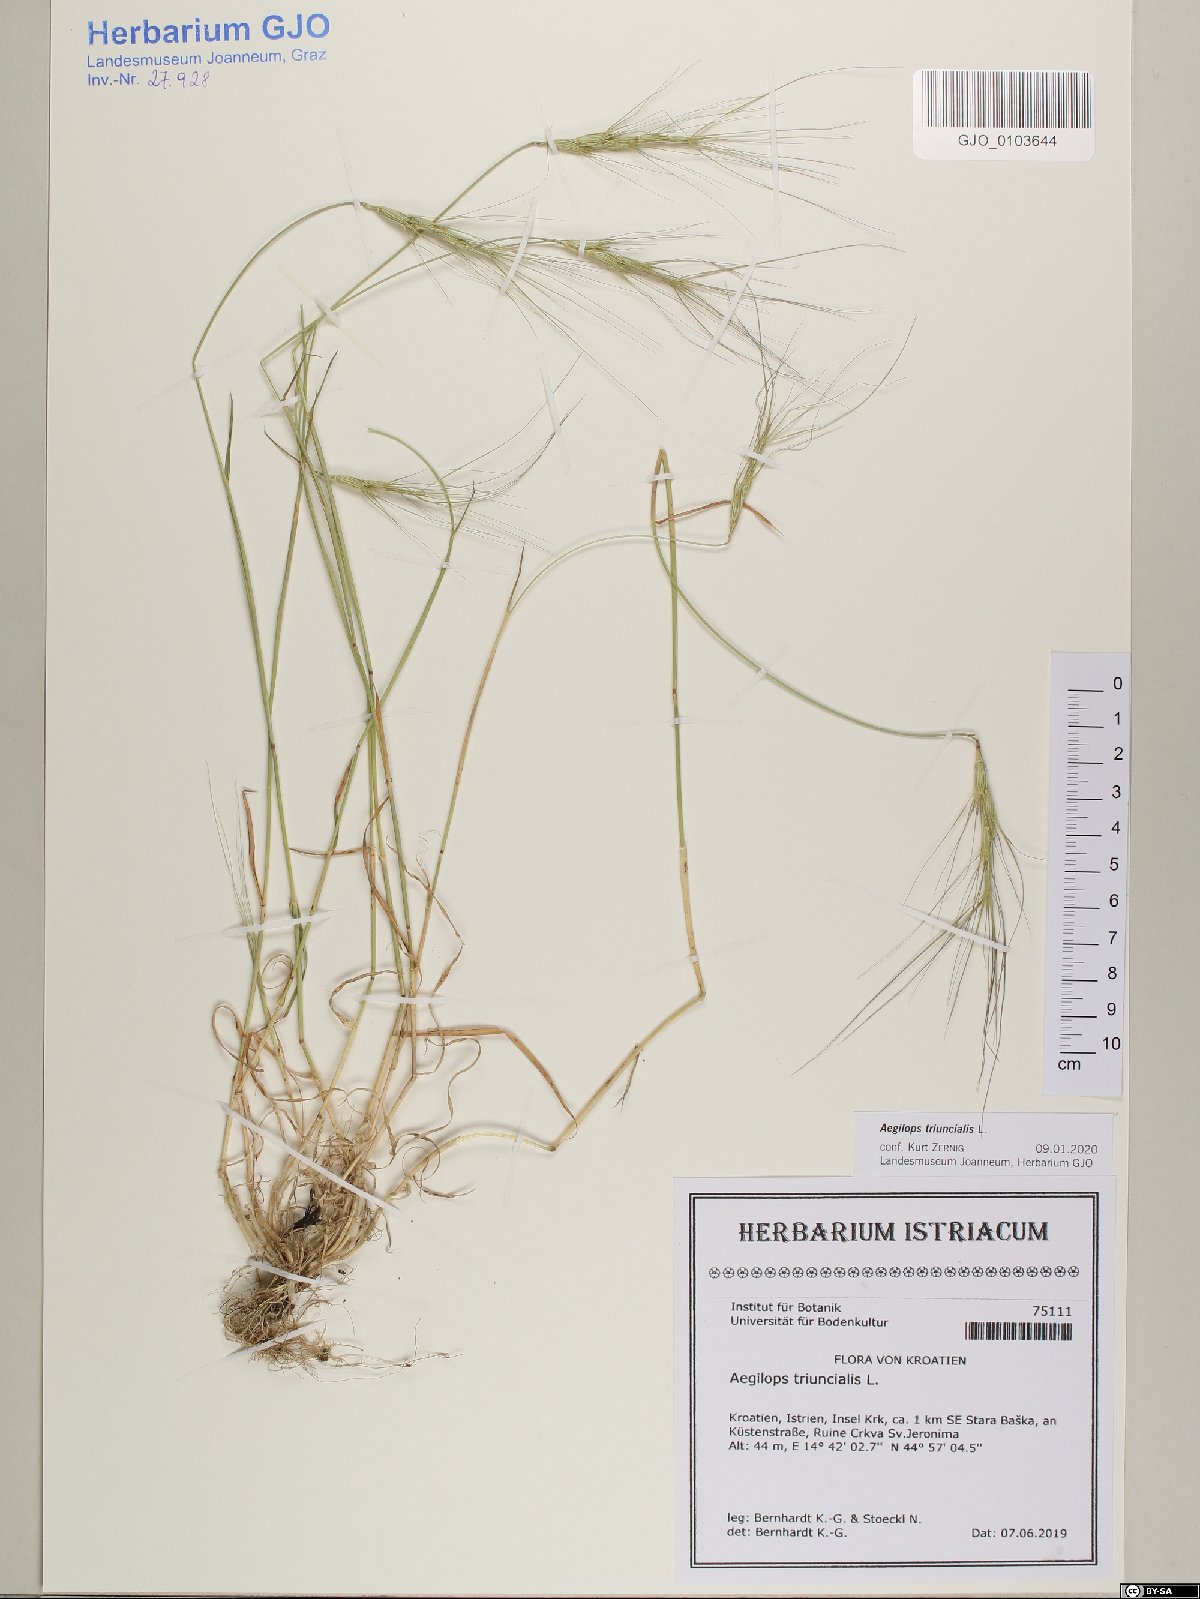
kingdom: Plantae
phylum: Tracheophyta
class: Liliopsida
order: Poales
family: Poaceae
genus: Aegilops
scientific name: Aegilops triuncialis
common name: Barb goat grass
